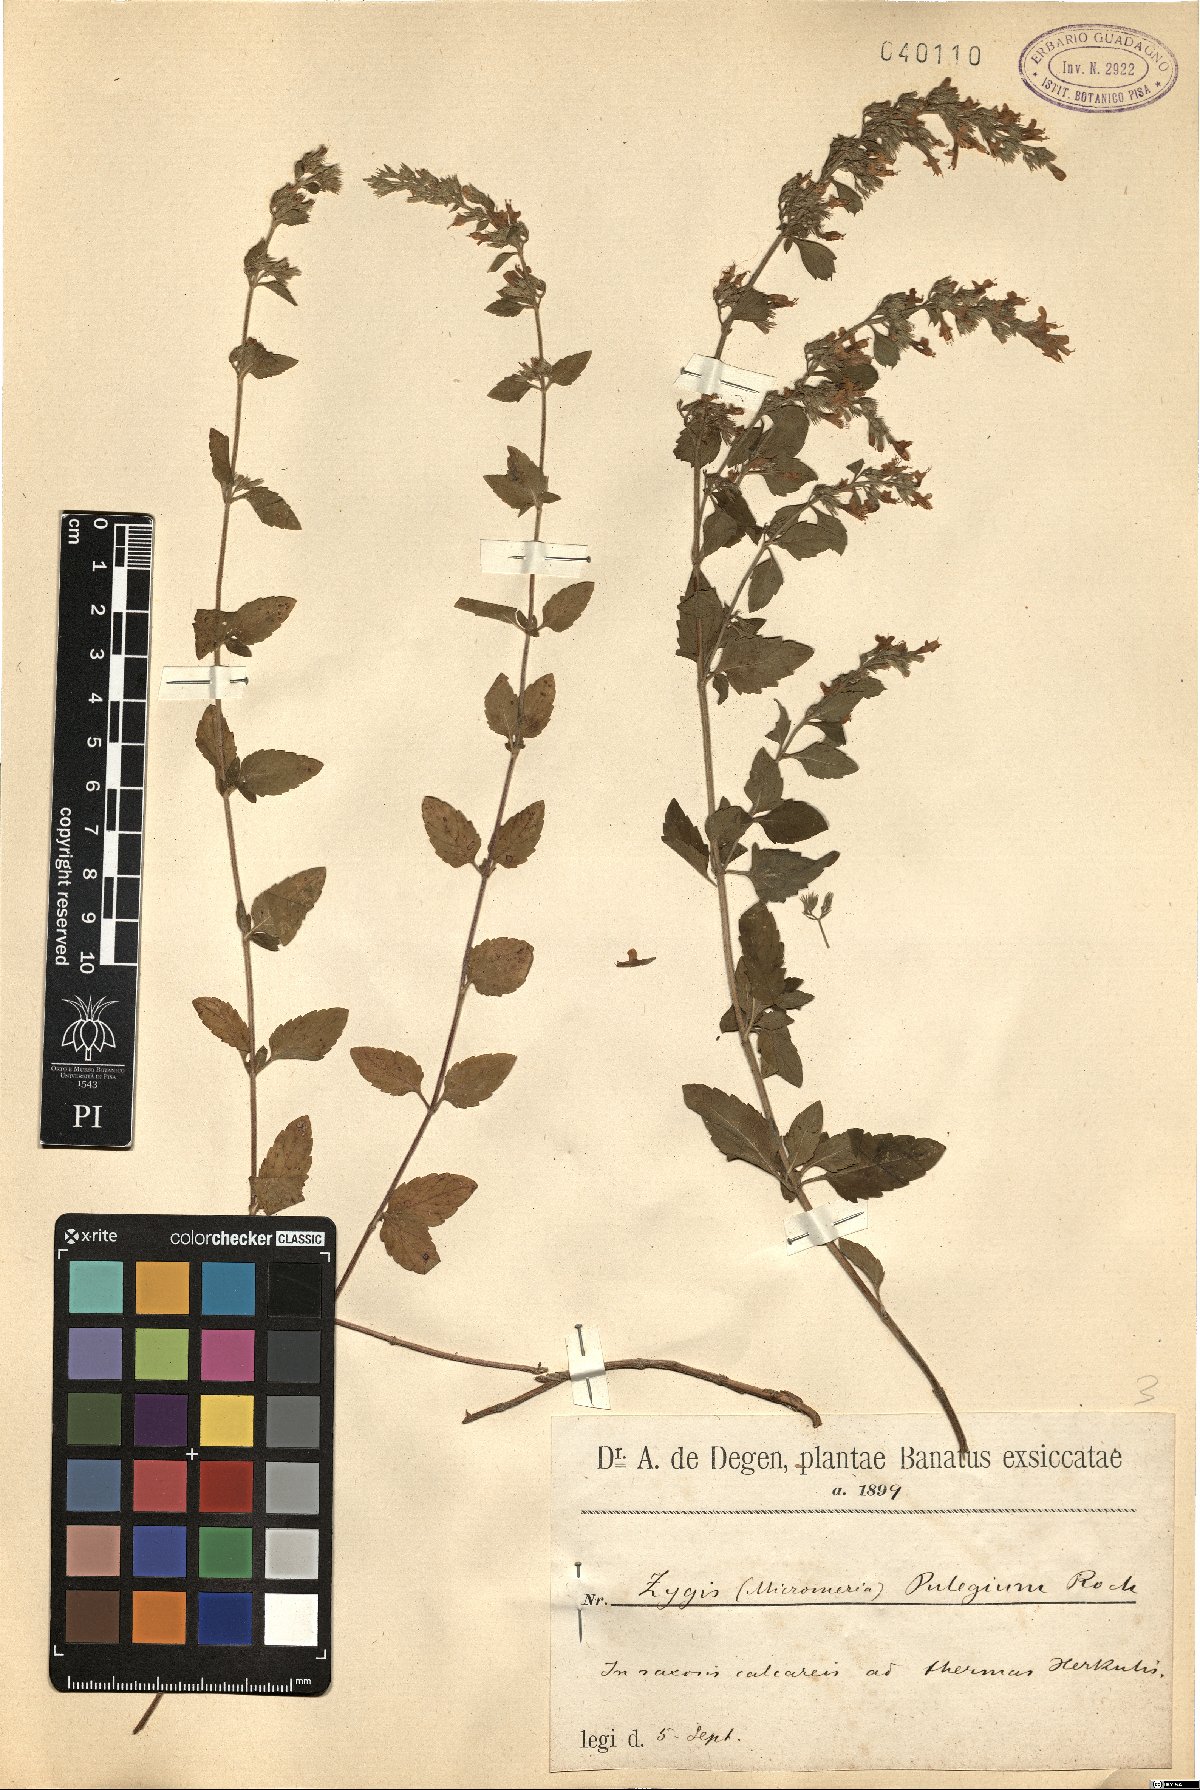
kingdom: Plantae
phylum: Tracheophyta
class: Magnoliopsida
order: Lamiales
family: Lamiaceae
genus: Clinopodium
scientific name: Clinopodium pulegium
